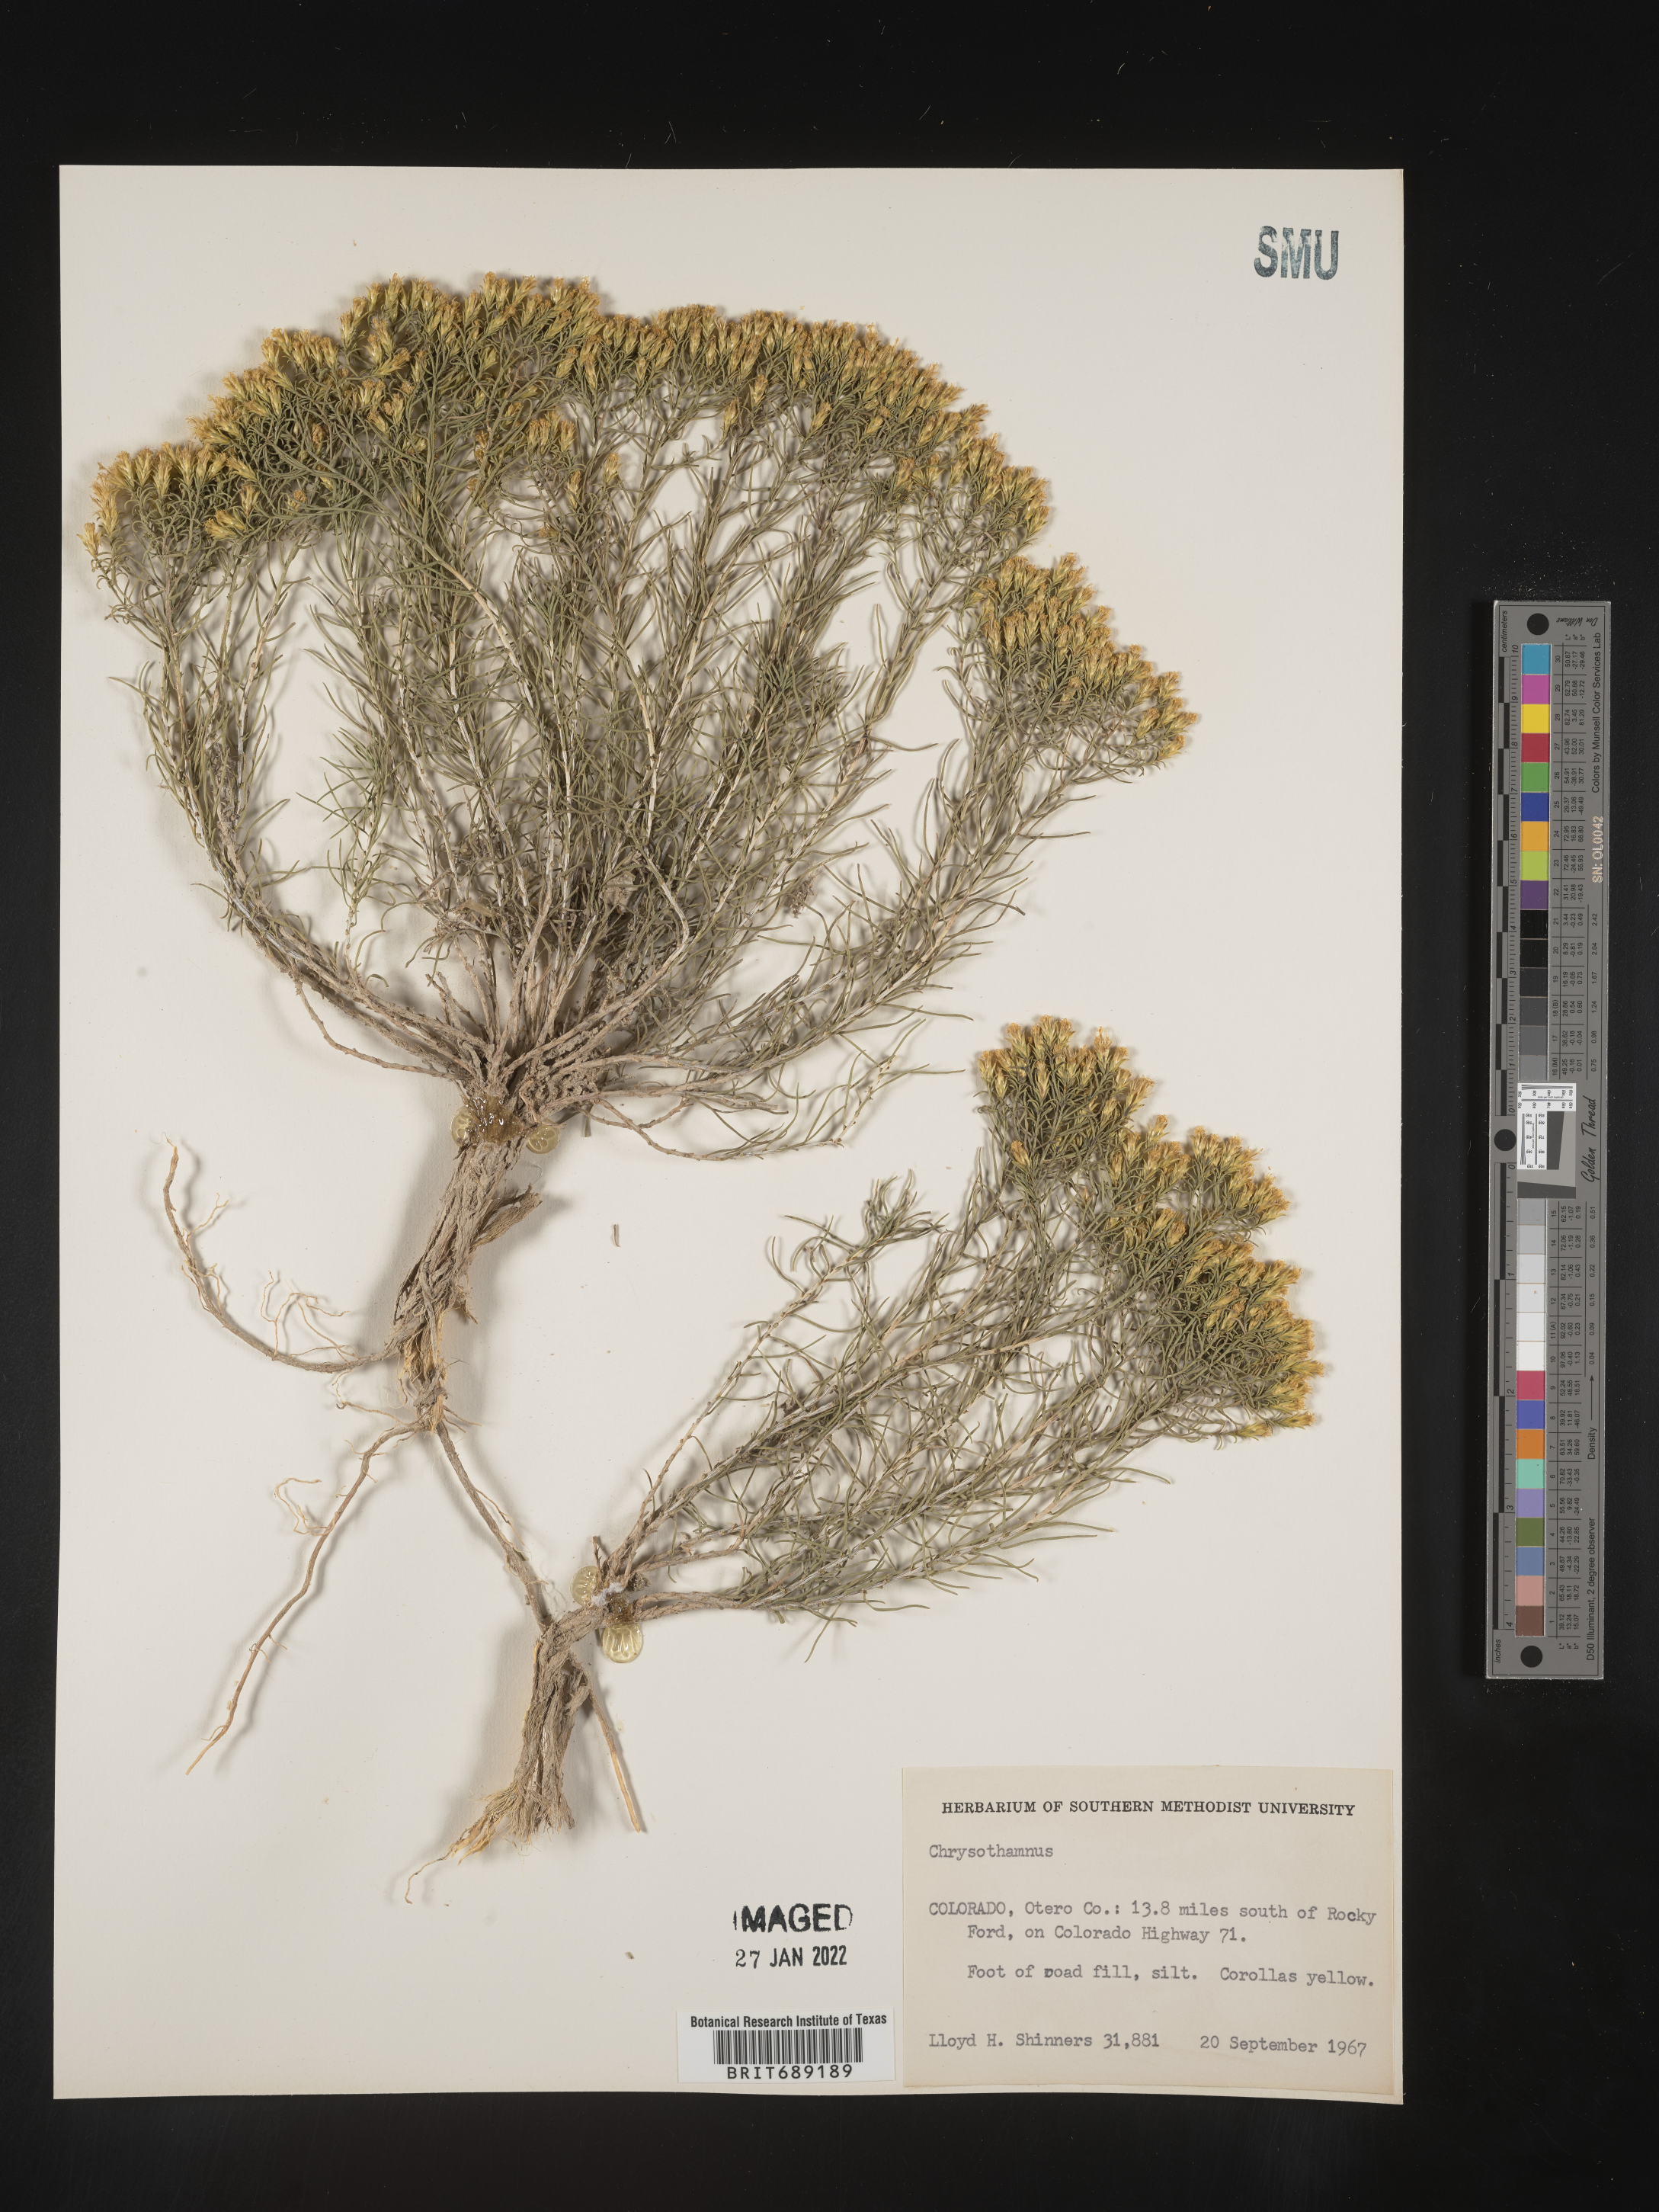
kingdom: Plantae
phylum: Tracheophyta
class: Magnoliopsida
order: Asterales
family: Asteraceae
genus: Chrysothamnus
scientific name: Chrysothamnus
